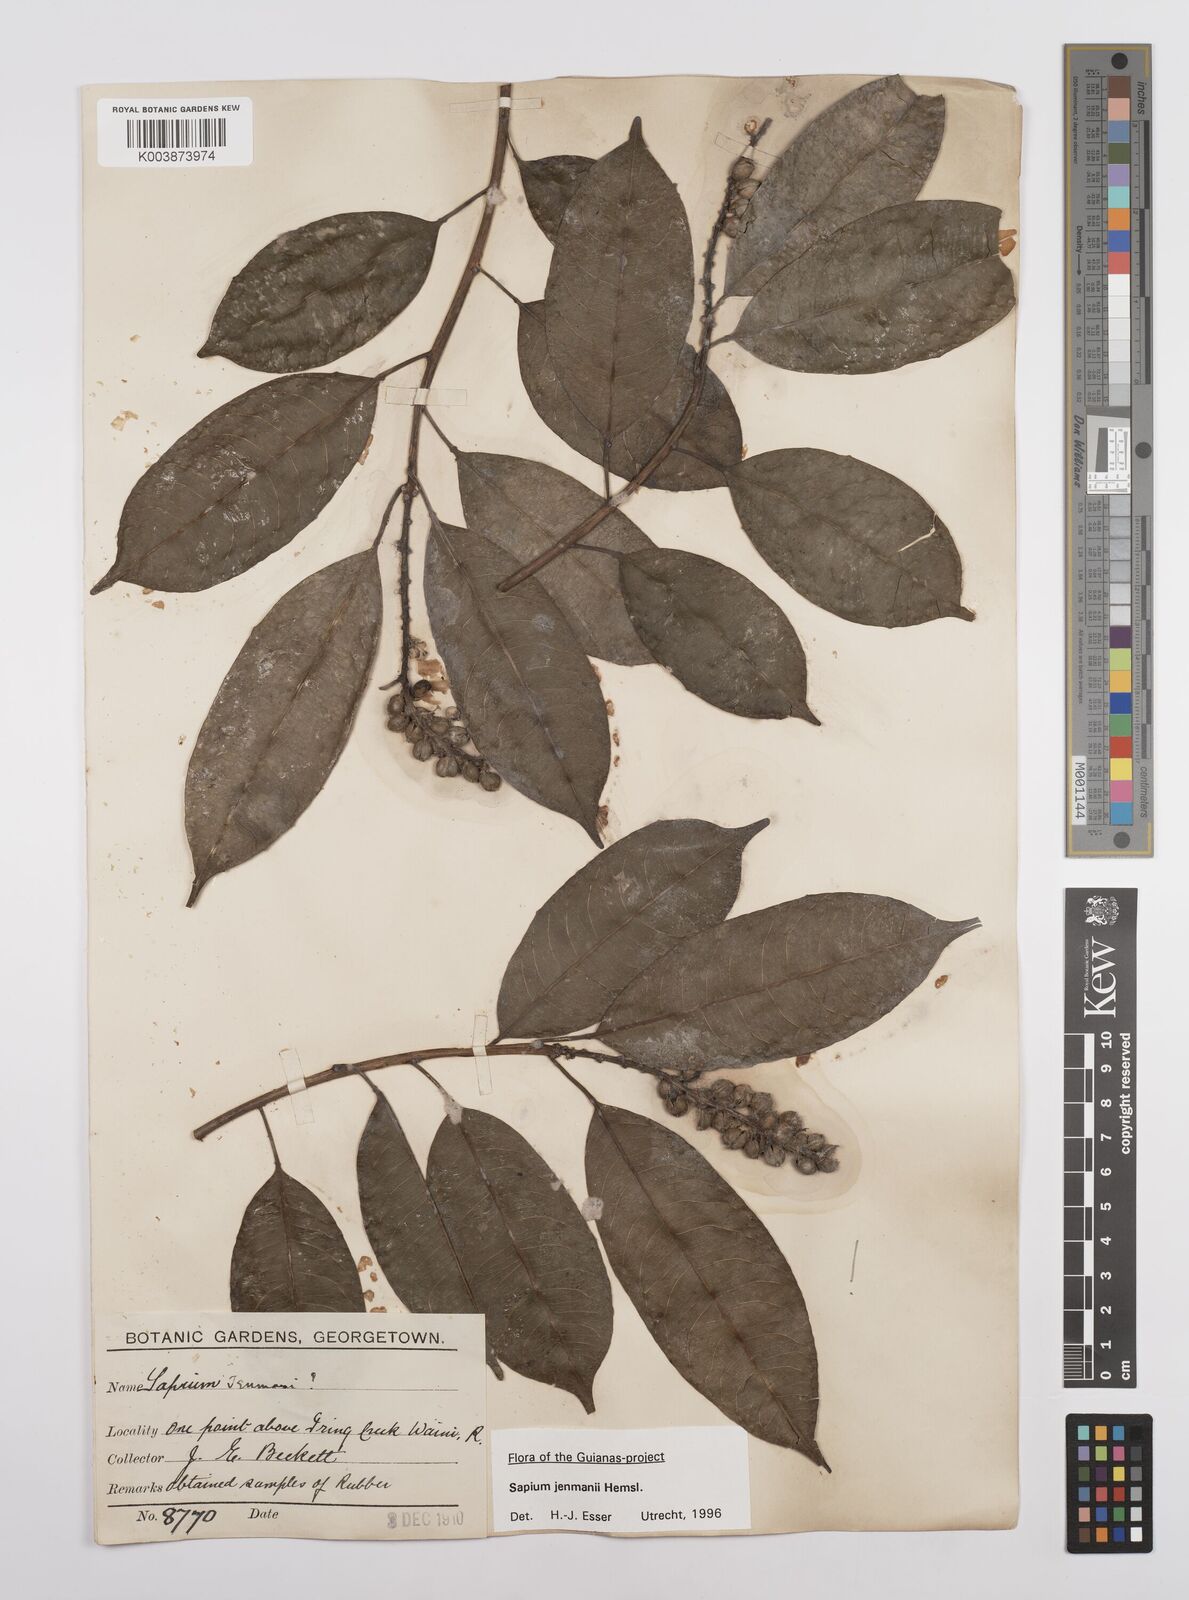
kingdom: Plantae
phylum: Tracheophyta
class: Magnoliopsida
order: Malpighiales
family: Euphorbiaceae
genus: Sapium
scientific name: Sapium jenmannii
